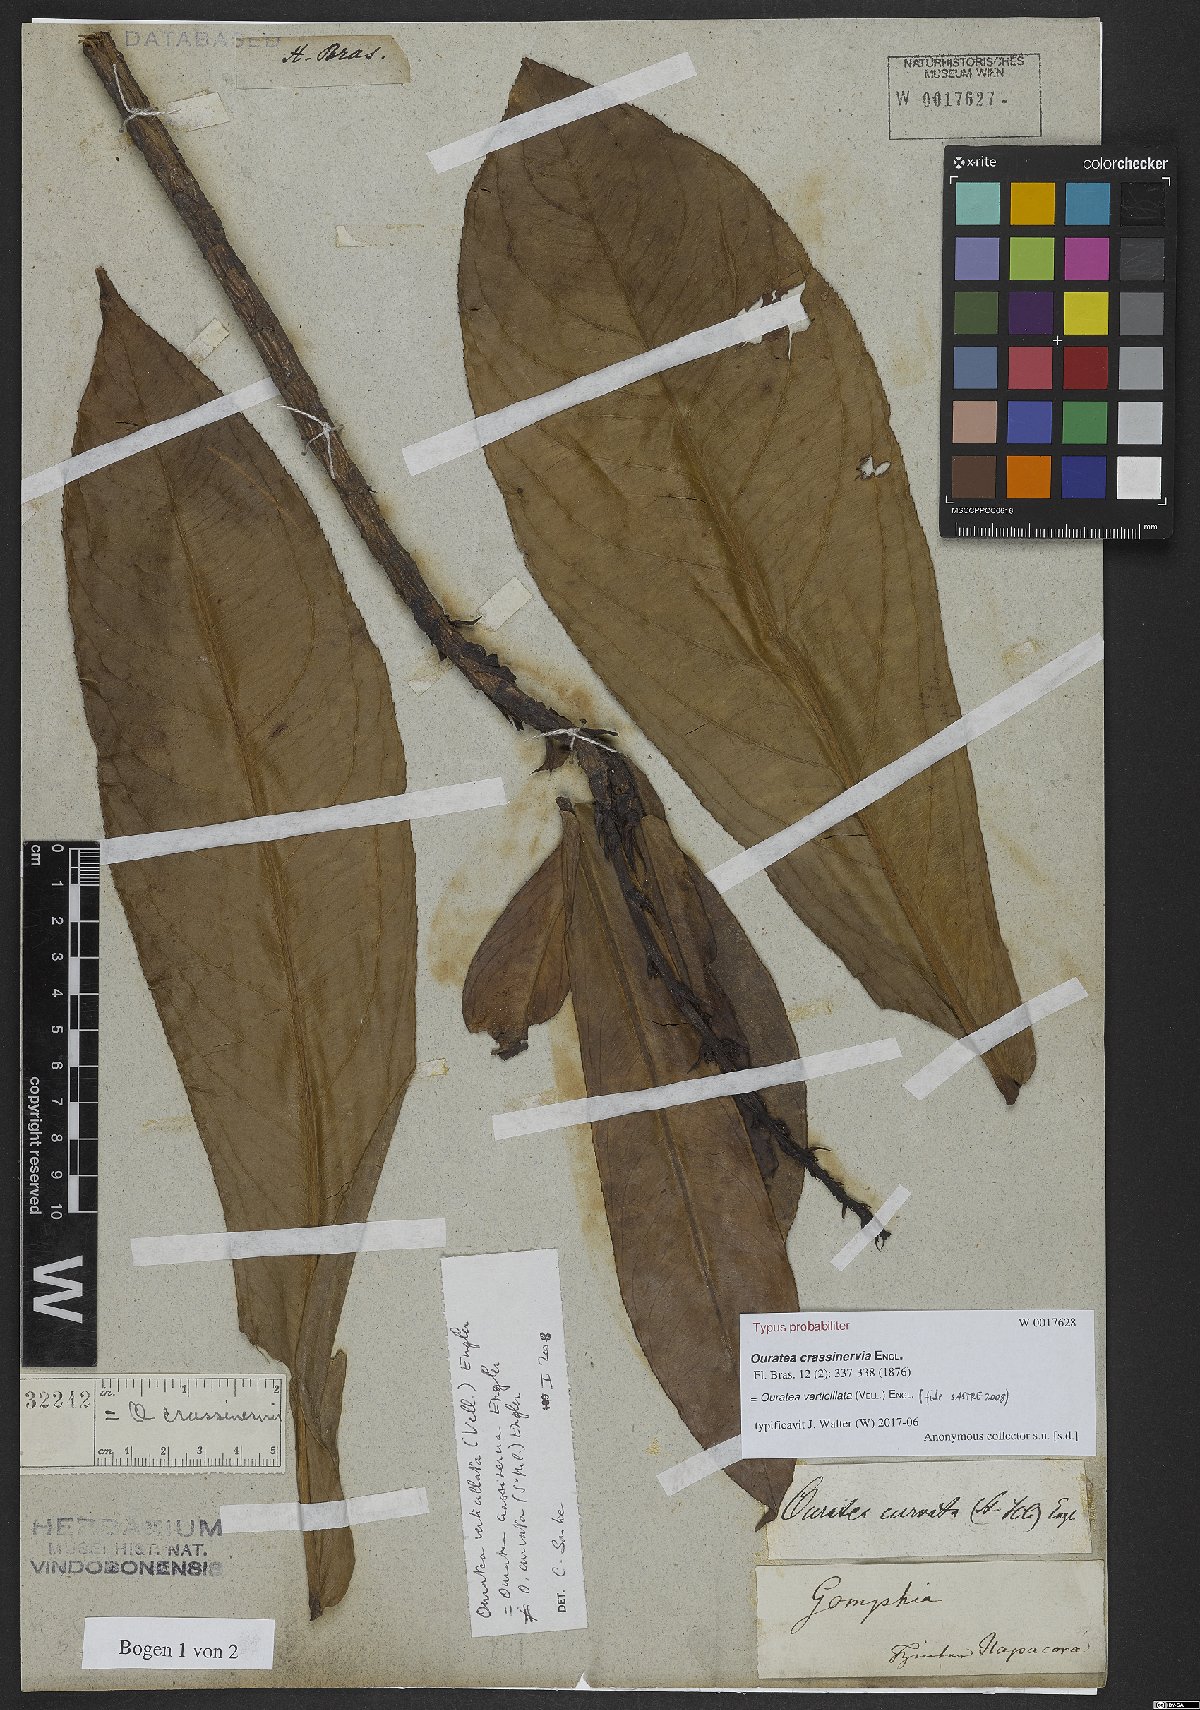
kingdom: Plantae
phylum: Tracheophyta
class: Magnoliopsida
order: Malpighiales
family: Ochnaceae
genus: Ouratea
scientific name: Ouratea crassinervia
